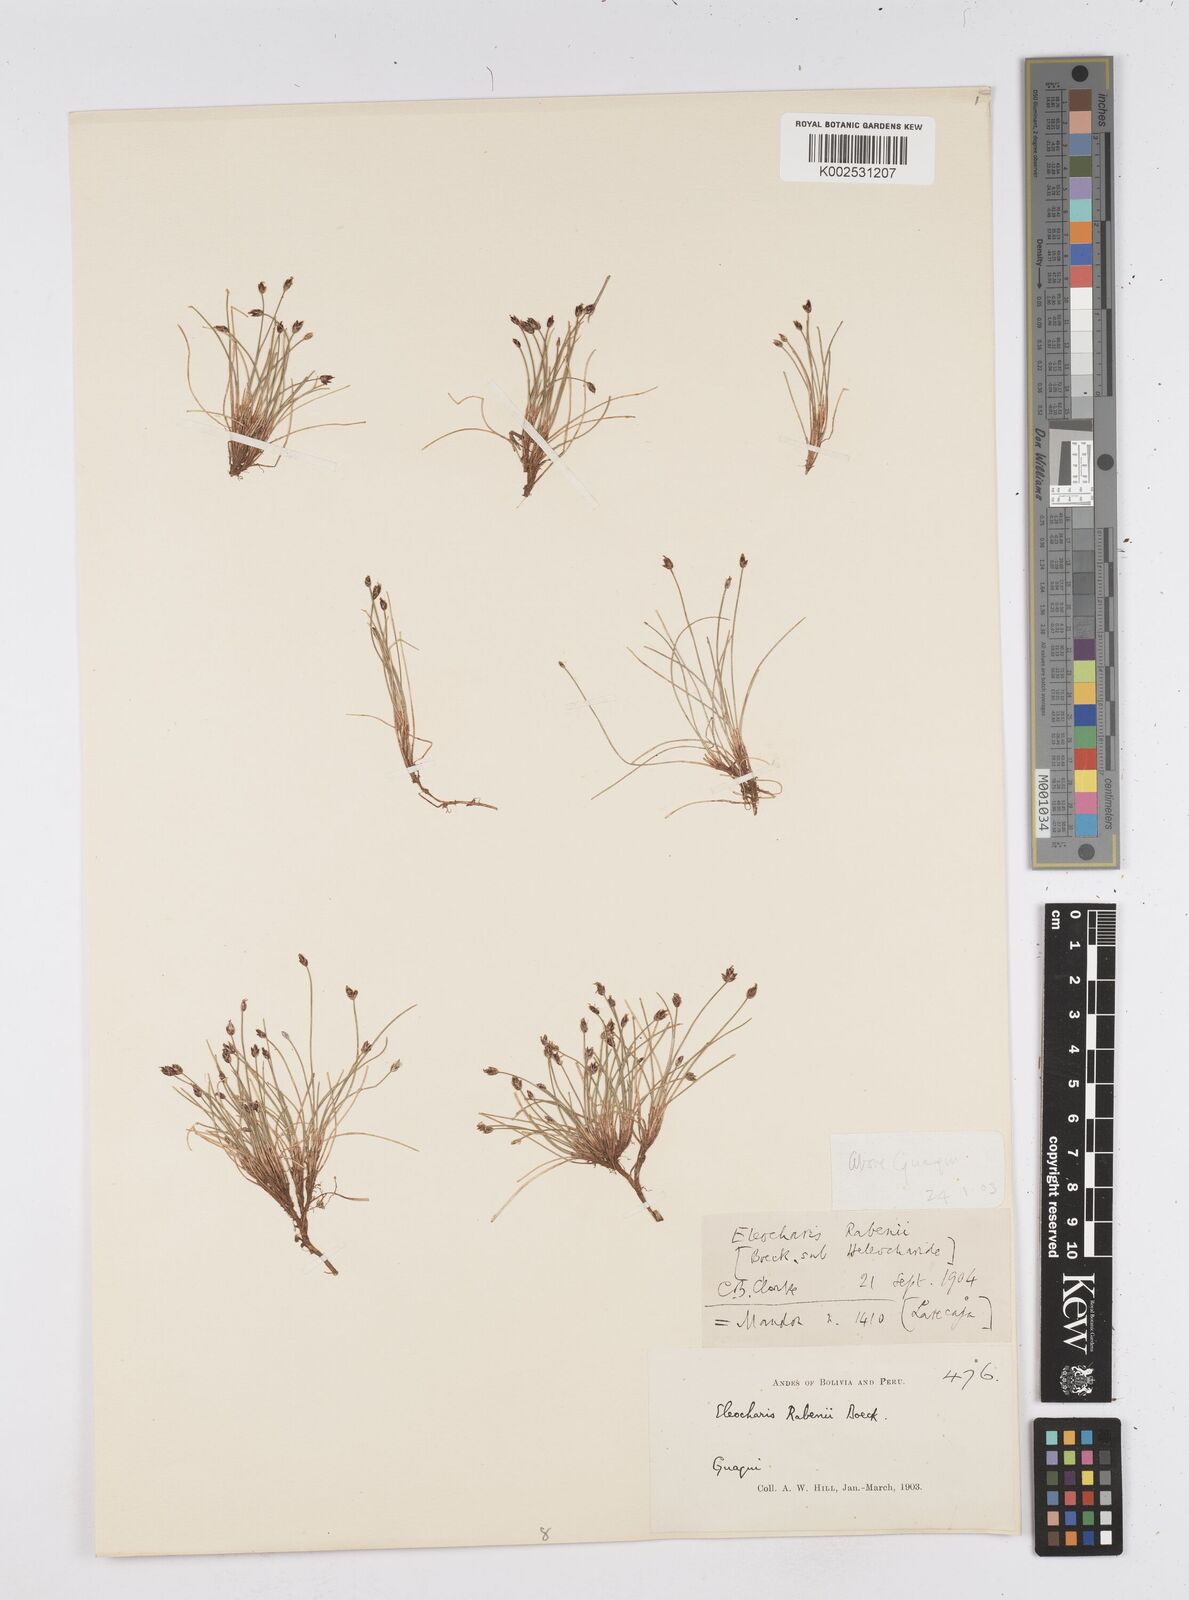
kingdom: Plantae
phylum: Tracheophyta
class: Liliopsida
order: Poales
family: Cyperaceae
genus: Eleocharis
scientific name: Eleocharis rabenii
